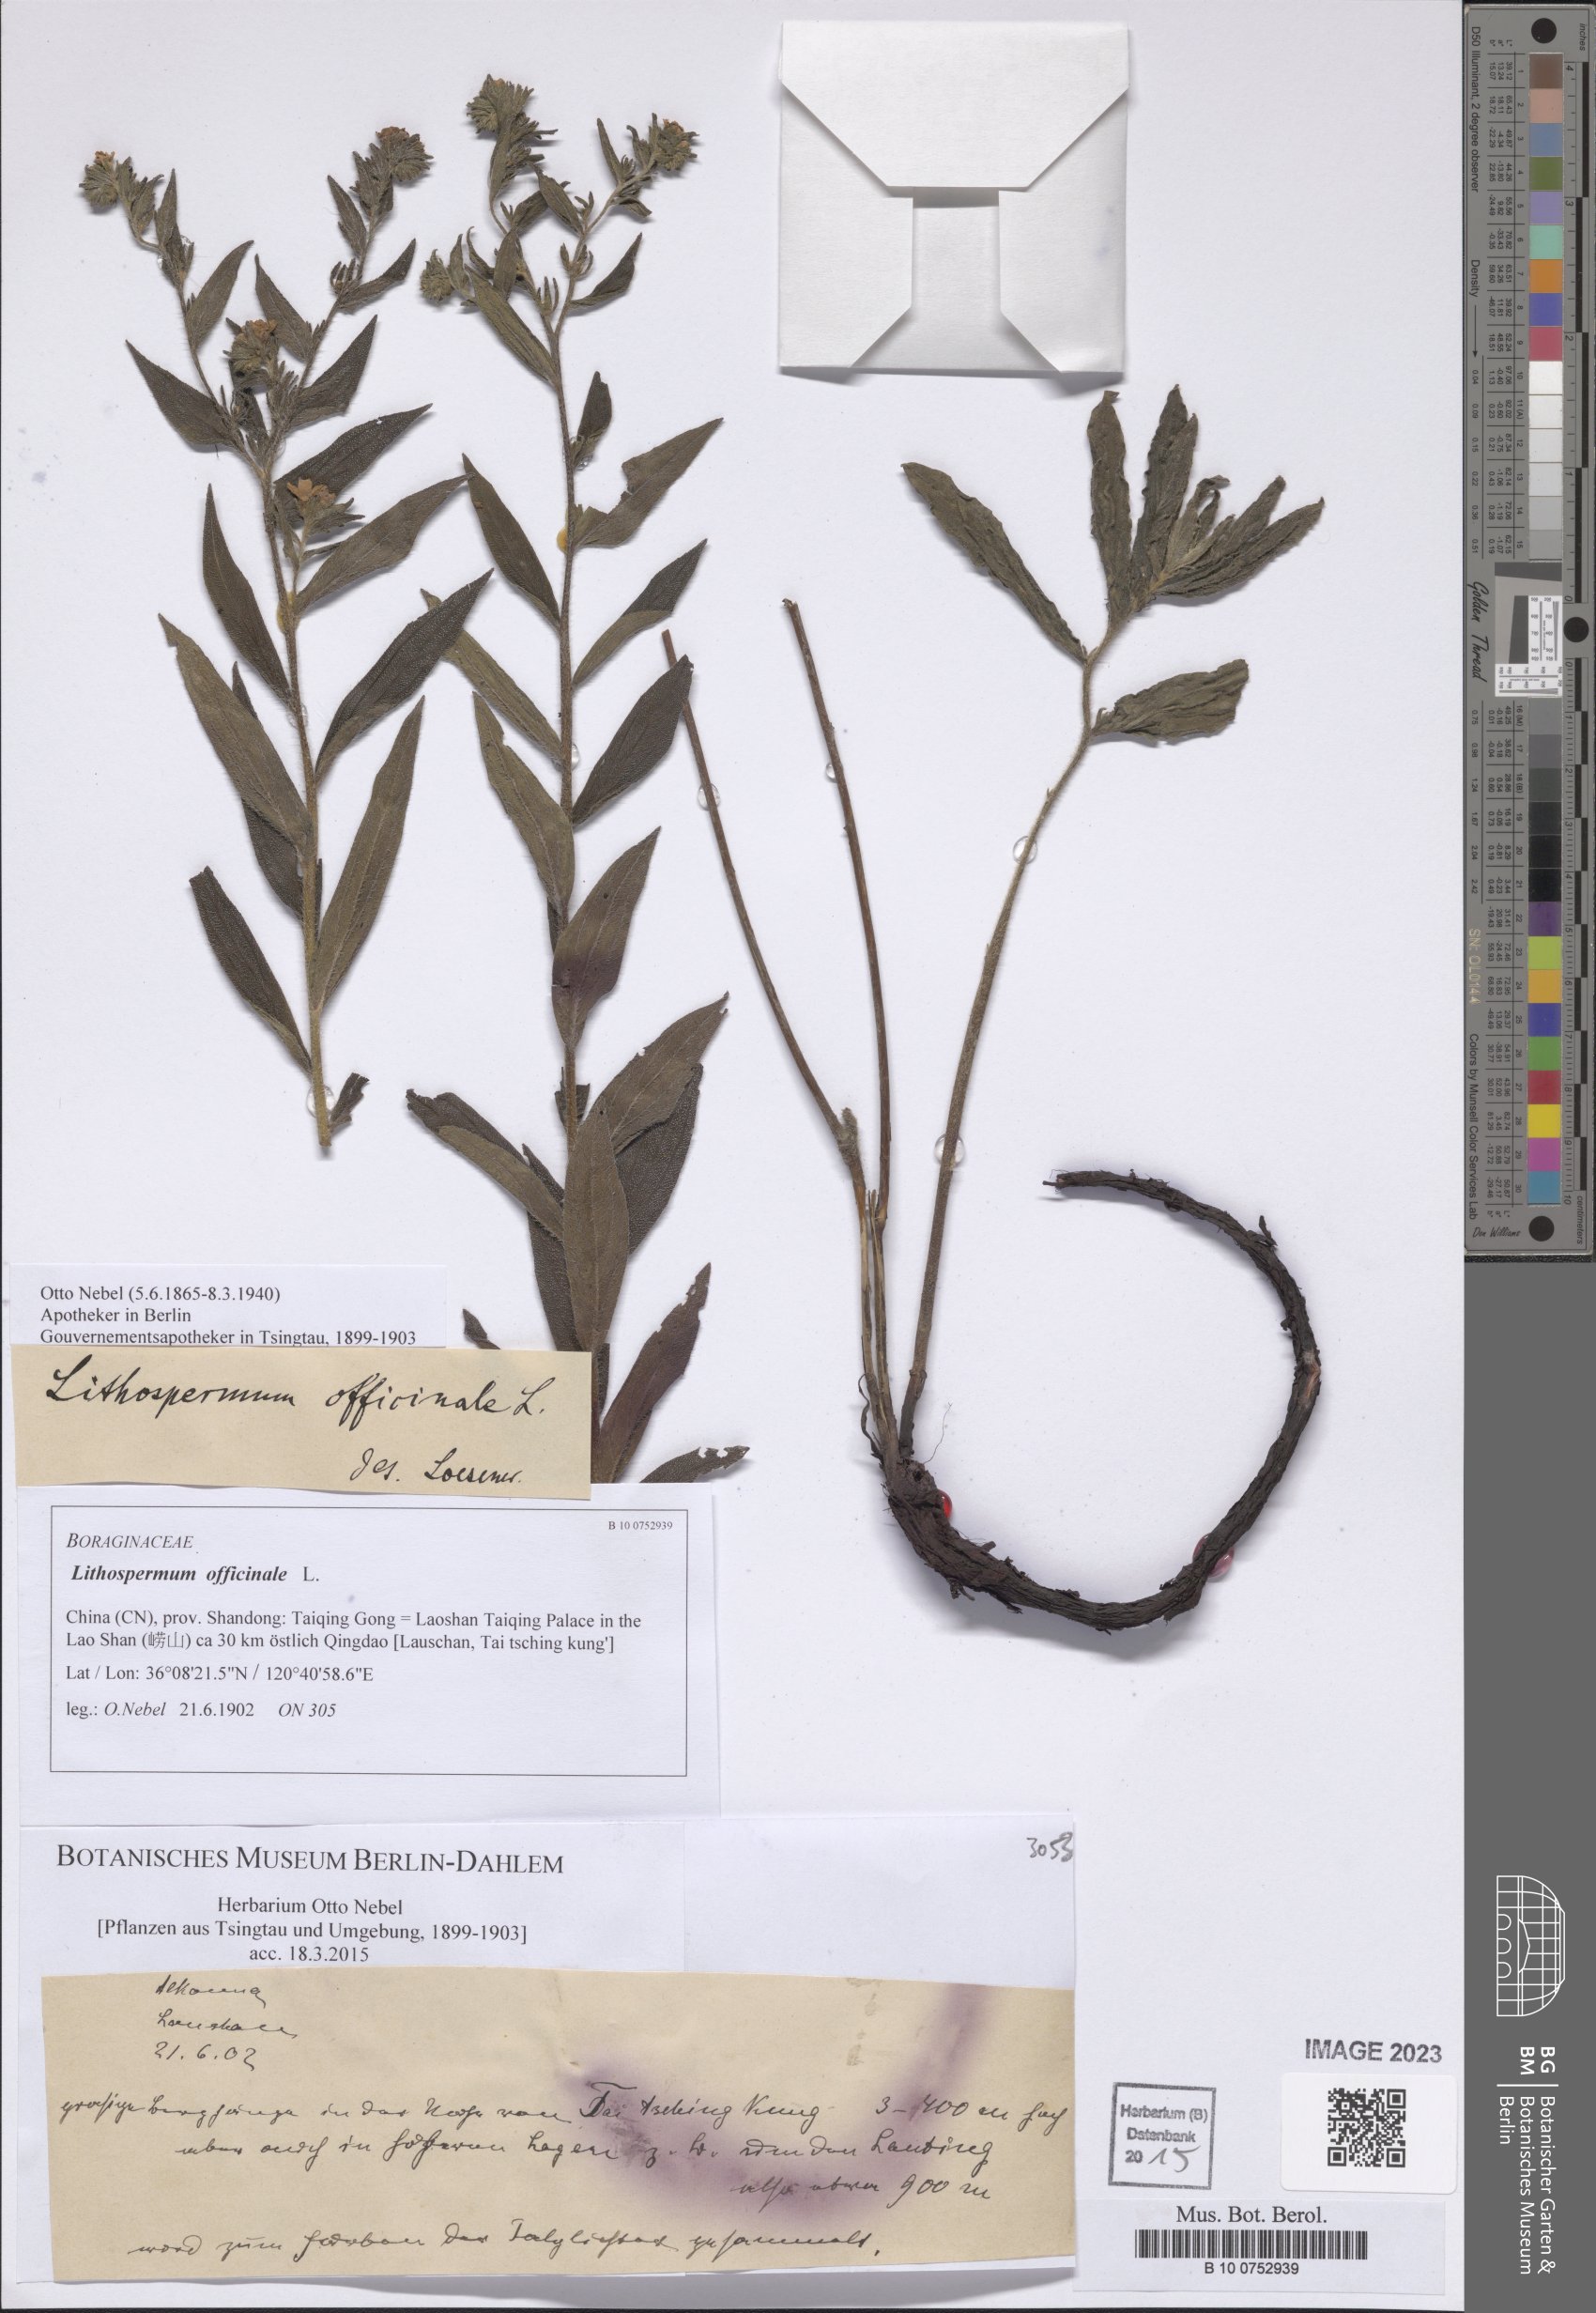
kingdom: Plantae
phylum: Tracheophyta
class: Magnoliopsida
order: Boraginales
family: Boraginaceae
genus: Lithospermum
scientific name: Lithospermum officinale
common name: Common gromwell
